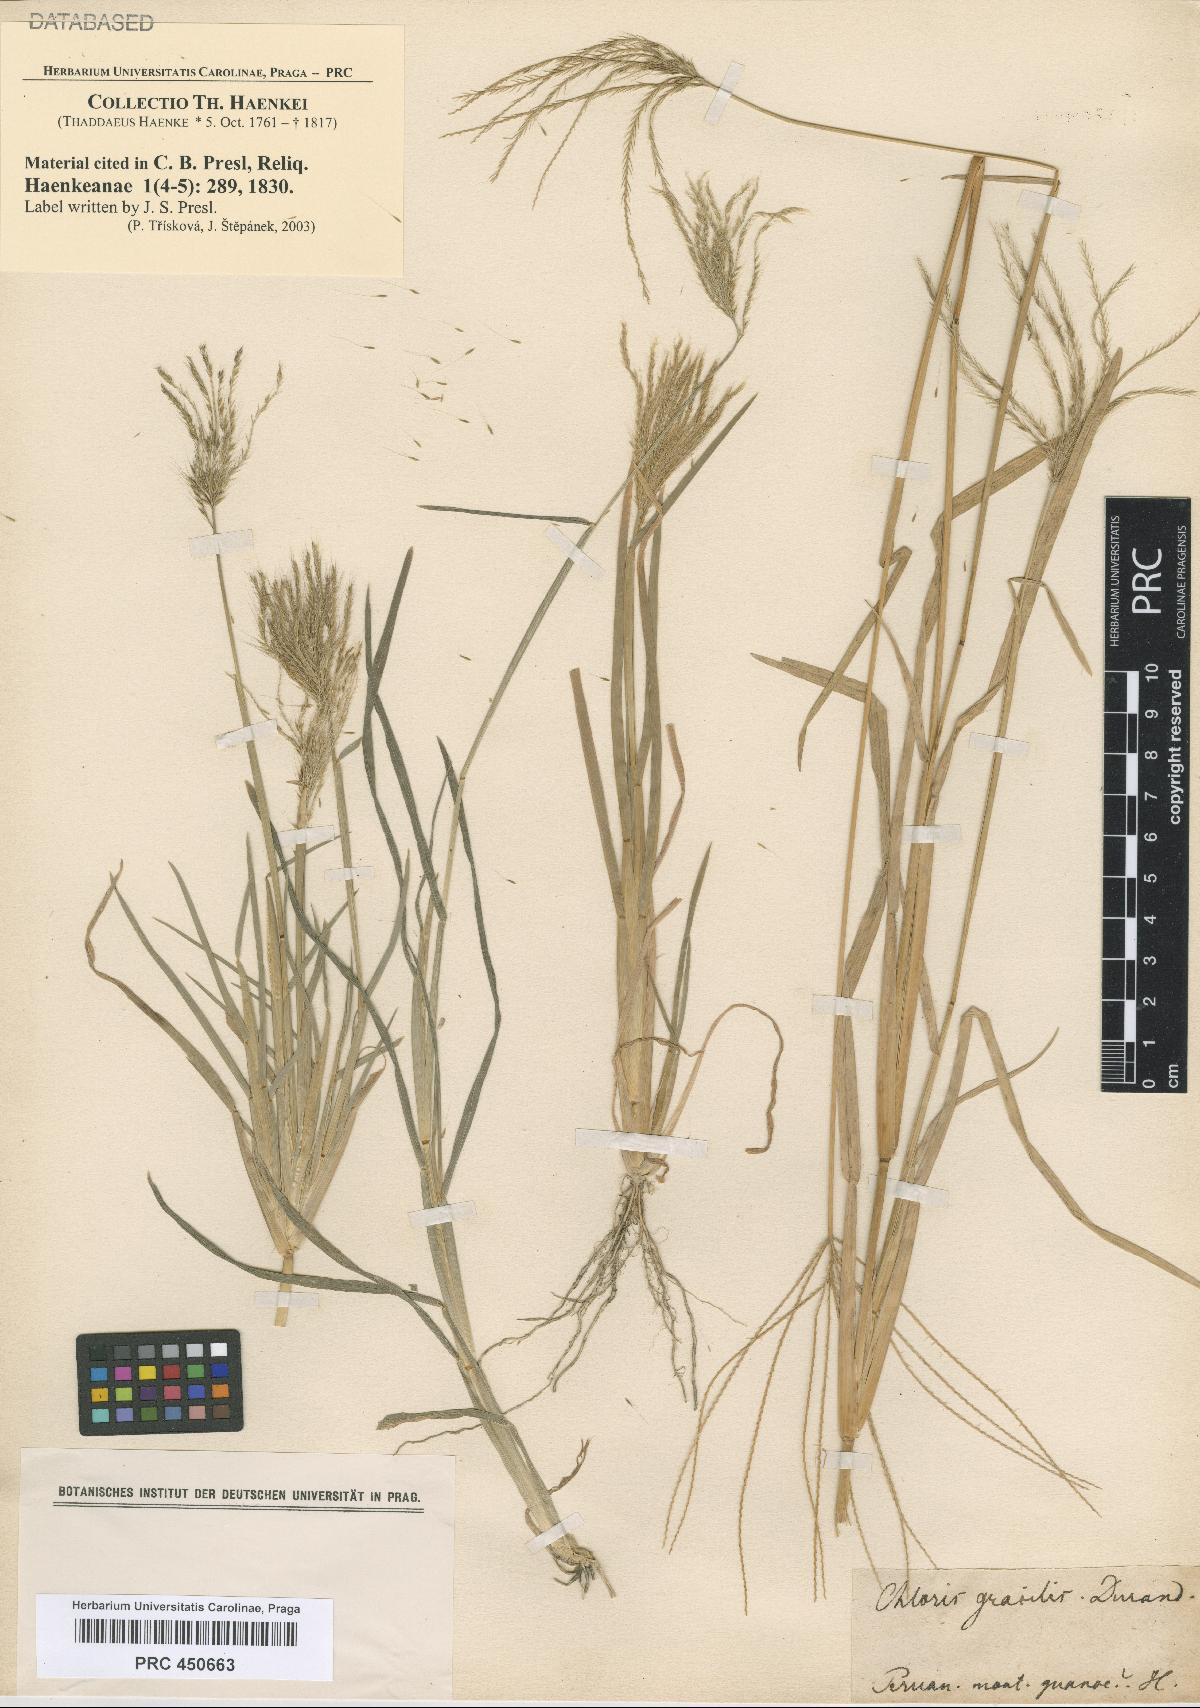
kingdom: Plantae
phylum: Tracheophyta
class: Liliopsida
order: Poales
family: Poaceae
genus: Chloris
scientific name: Chloris
